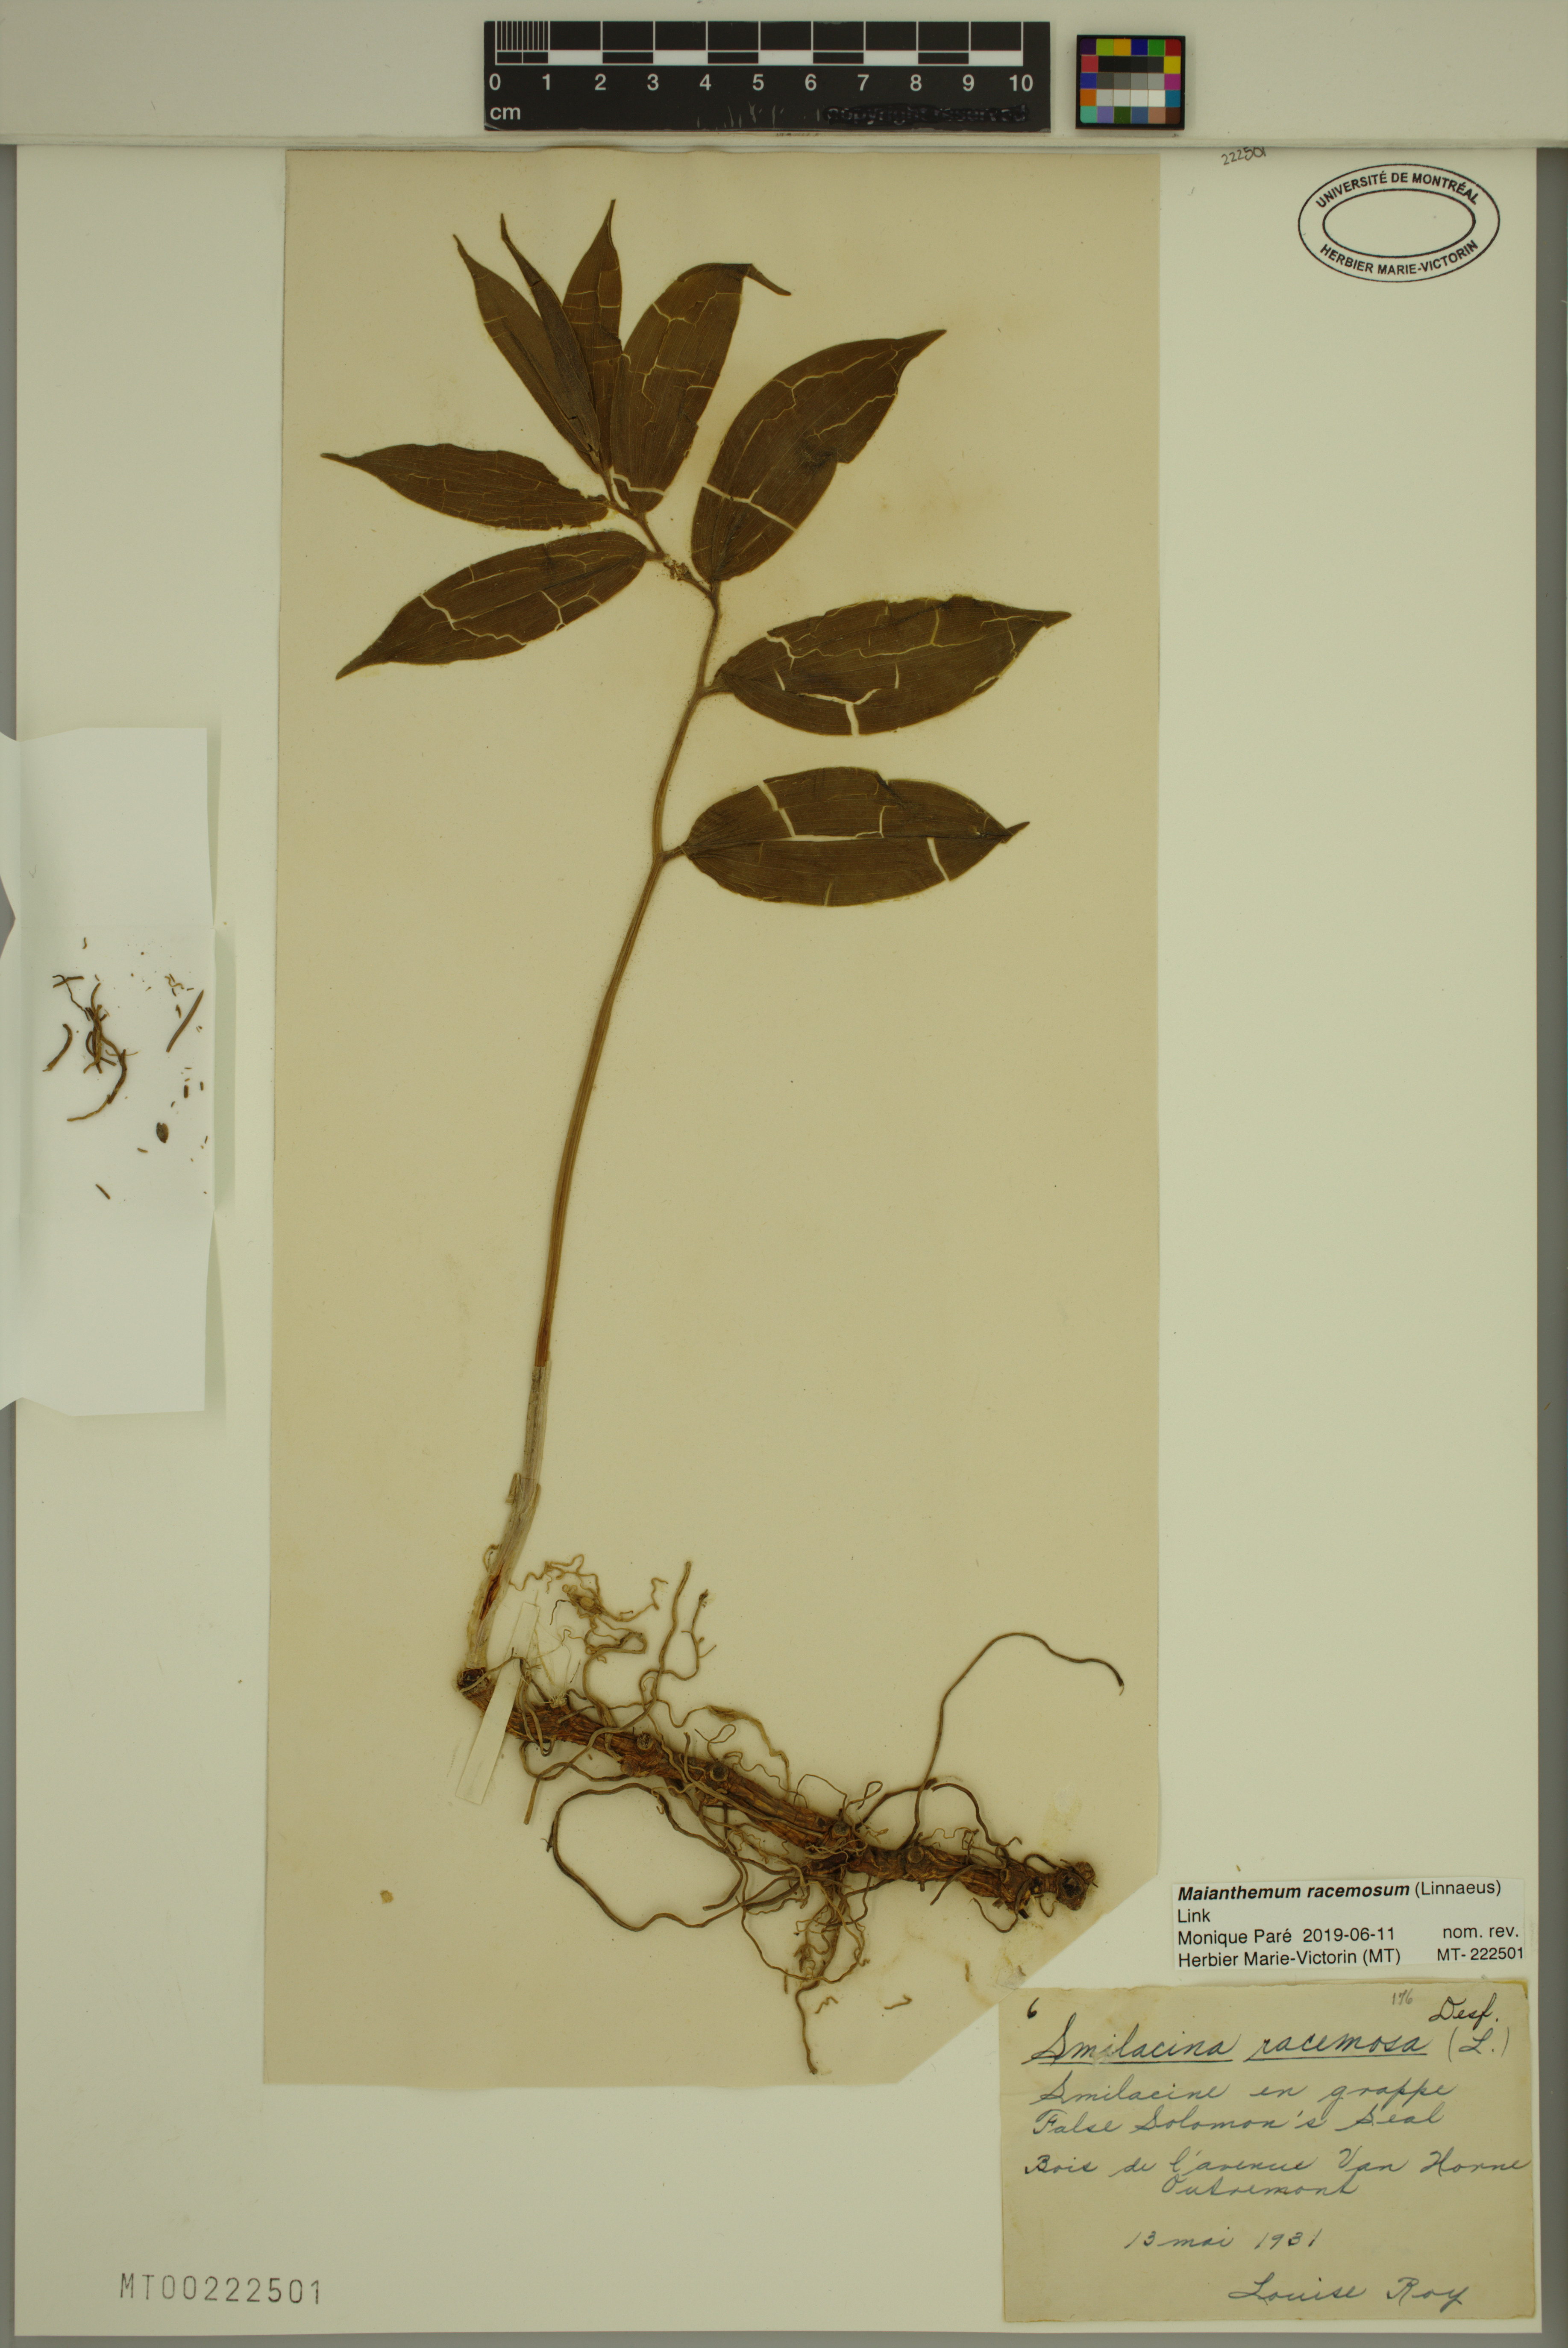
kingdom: Plantae
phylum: Tracheophyta
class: Liliopsida
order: Asparagales
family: Asparagaceae
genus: Maianthemum
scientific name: Maianthemum racemosum
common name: False spikenard
